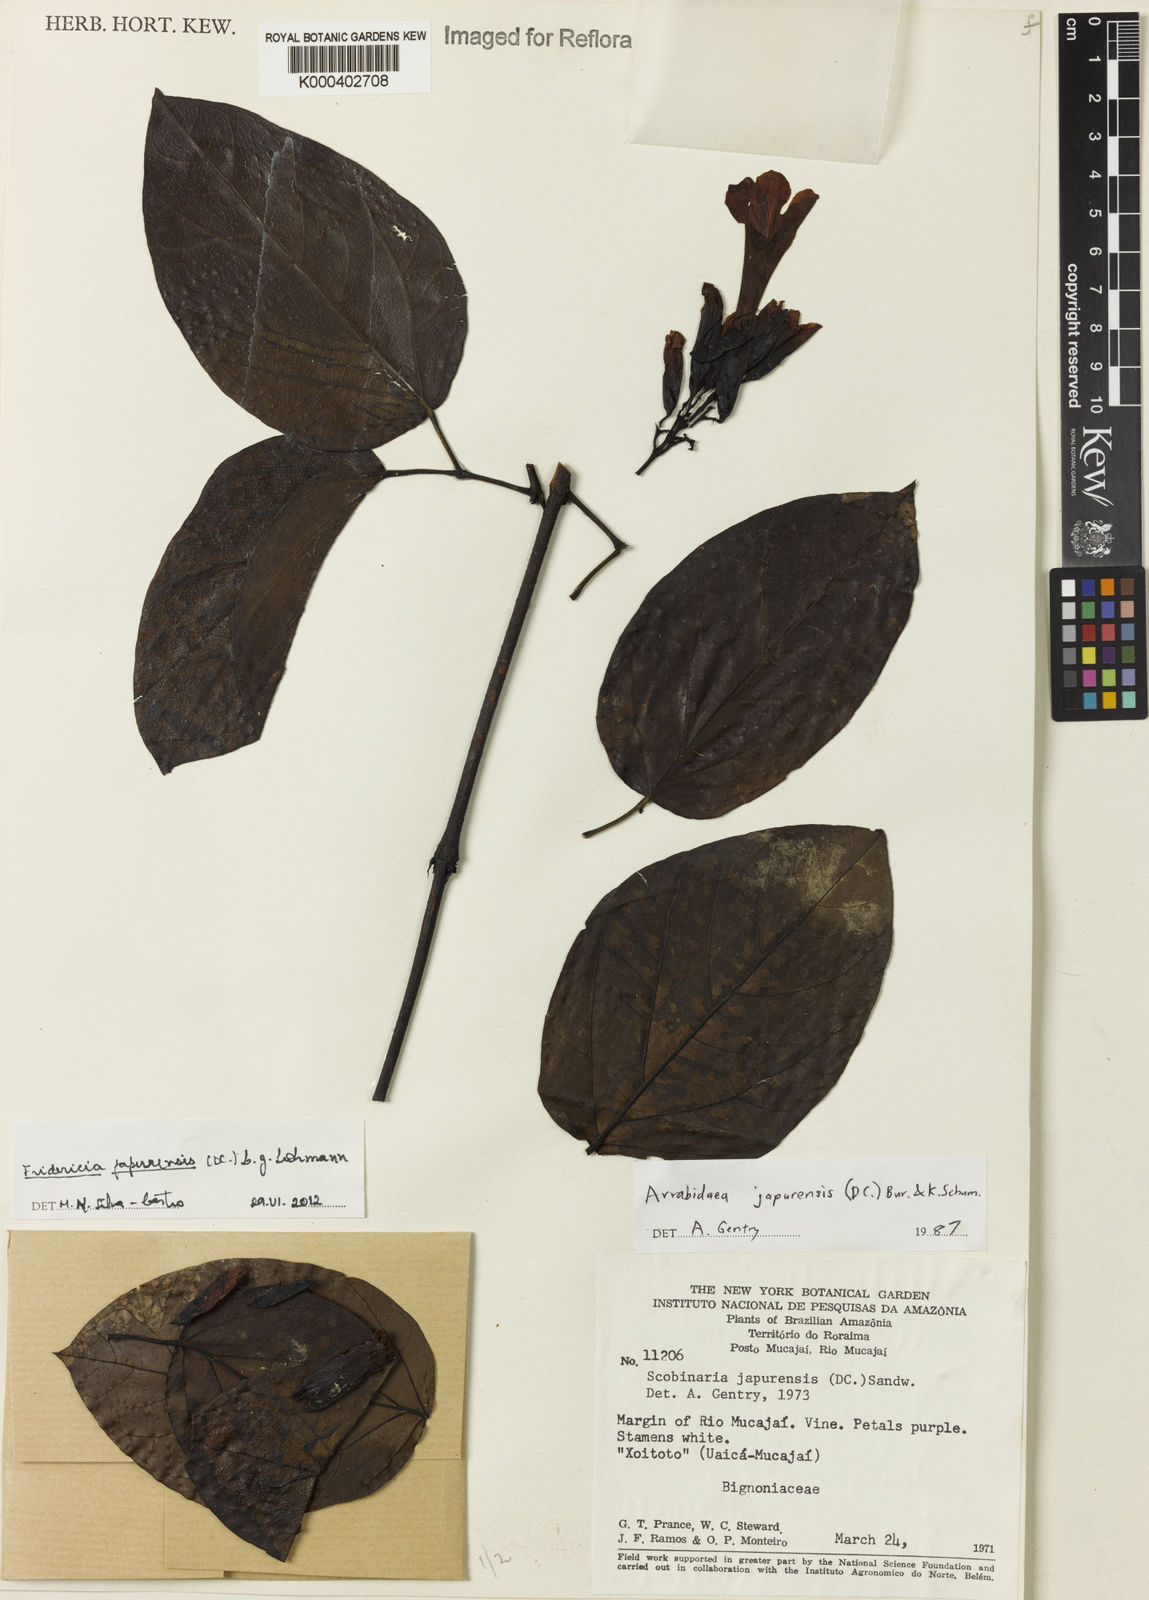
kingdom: Plantae
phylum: Tracheophyta
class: Magnoliopsida
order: Lamiales
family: Bignoniaceae
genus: Fridericia
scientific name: Fridericia japurensis
